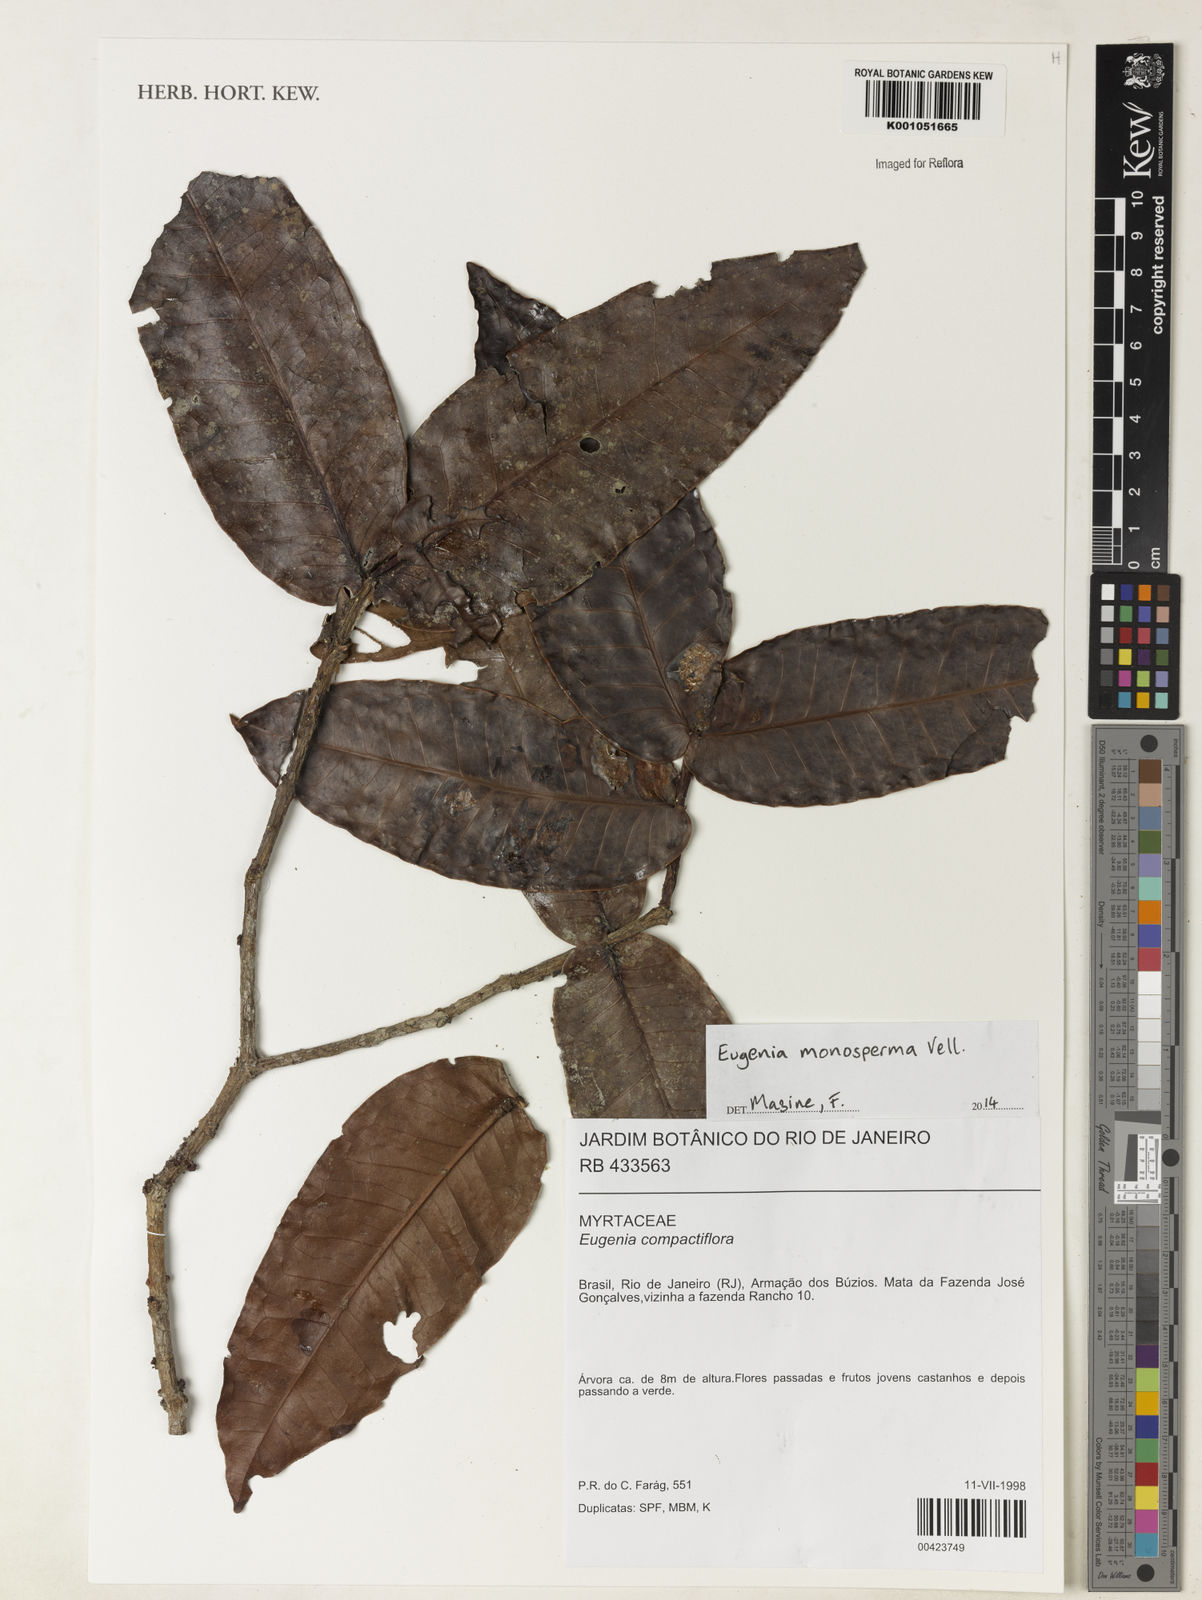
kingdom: Plantae
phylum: Tracheophyta
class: Magnoliopsida
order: Myrtales
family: Myrtaceae
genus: Eugenia
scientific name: Eugenia monosperma
